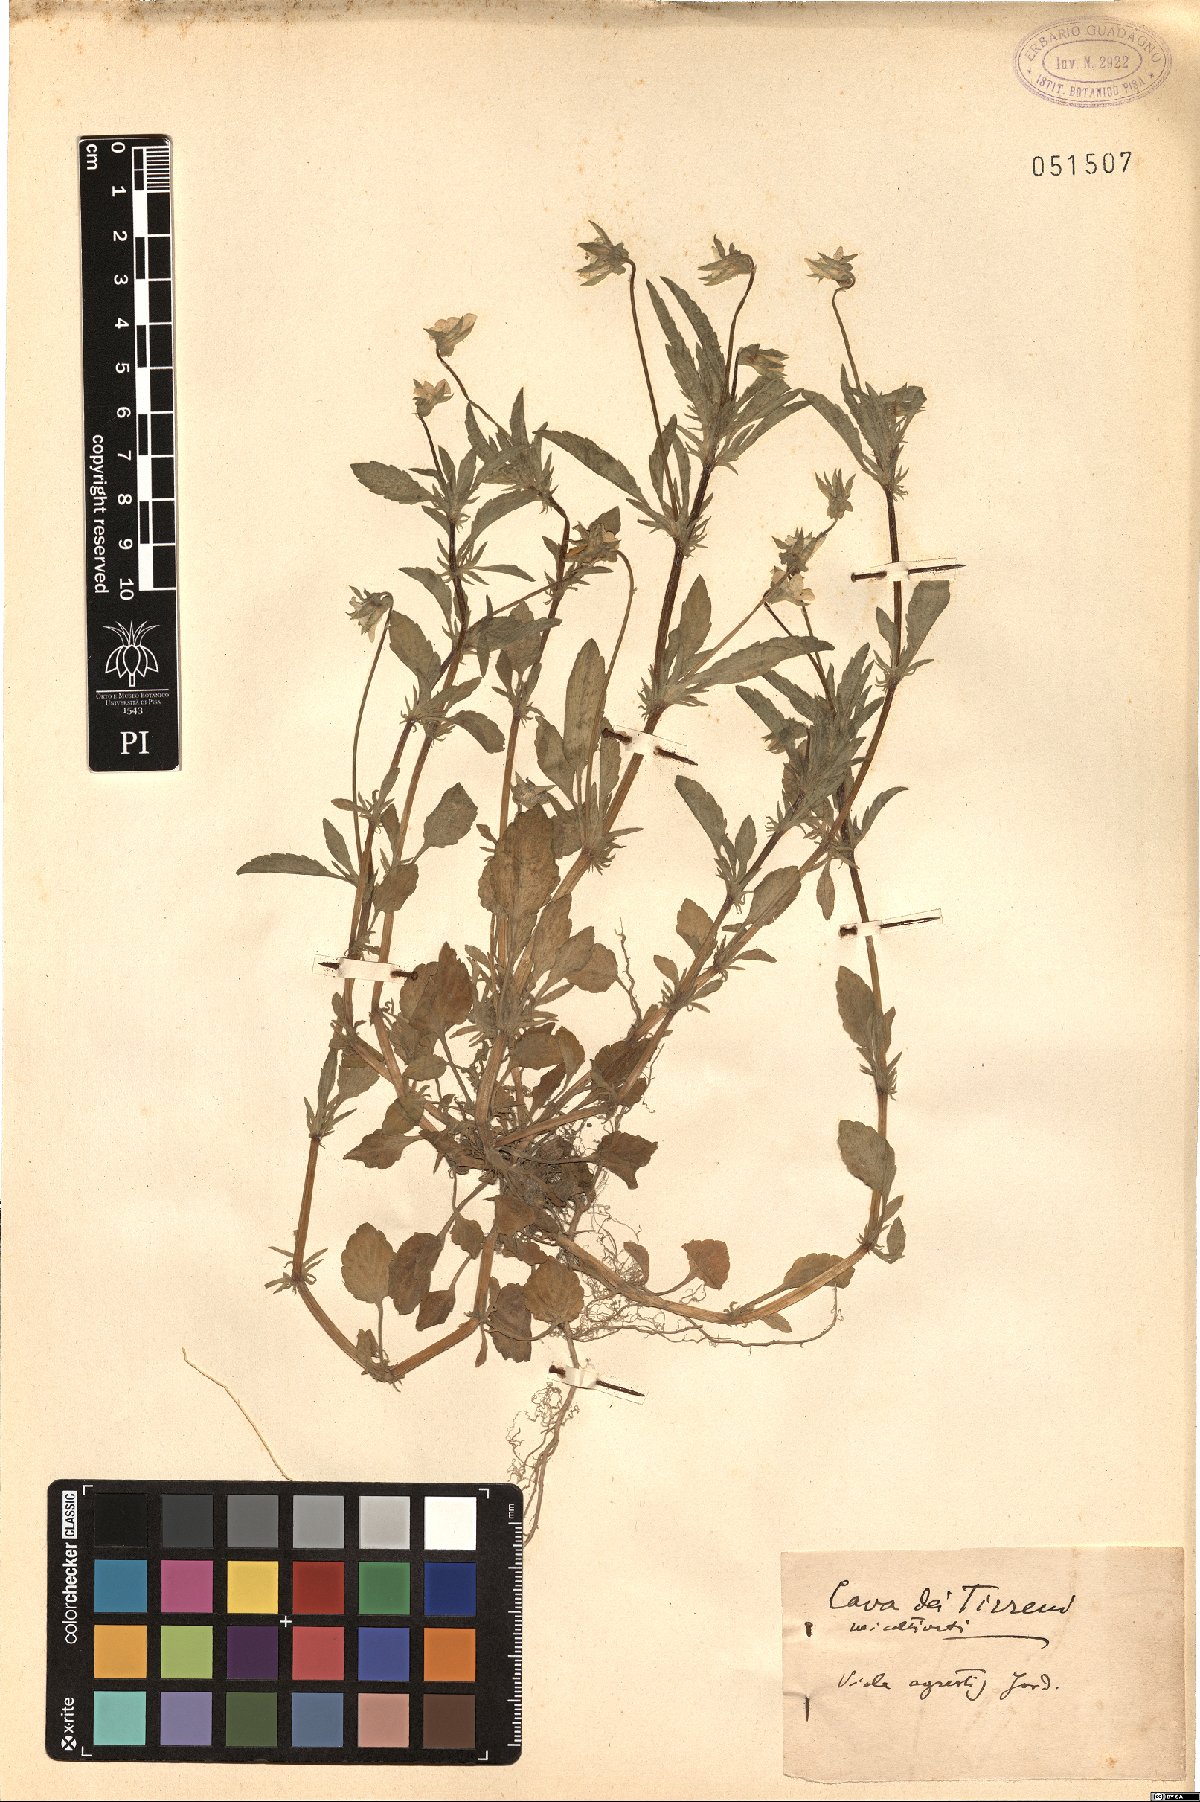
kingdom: Plantae
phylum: Tracheophyta
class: Magnoliopsida
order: Malpighiales
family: Violaceae
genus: Viola
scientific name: Viola arvensis
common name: Field pansy
